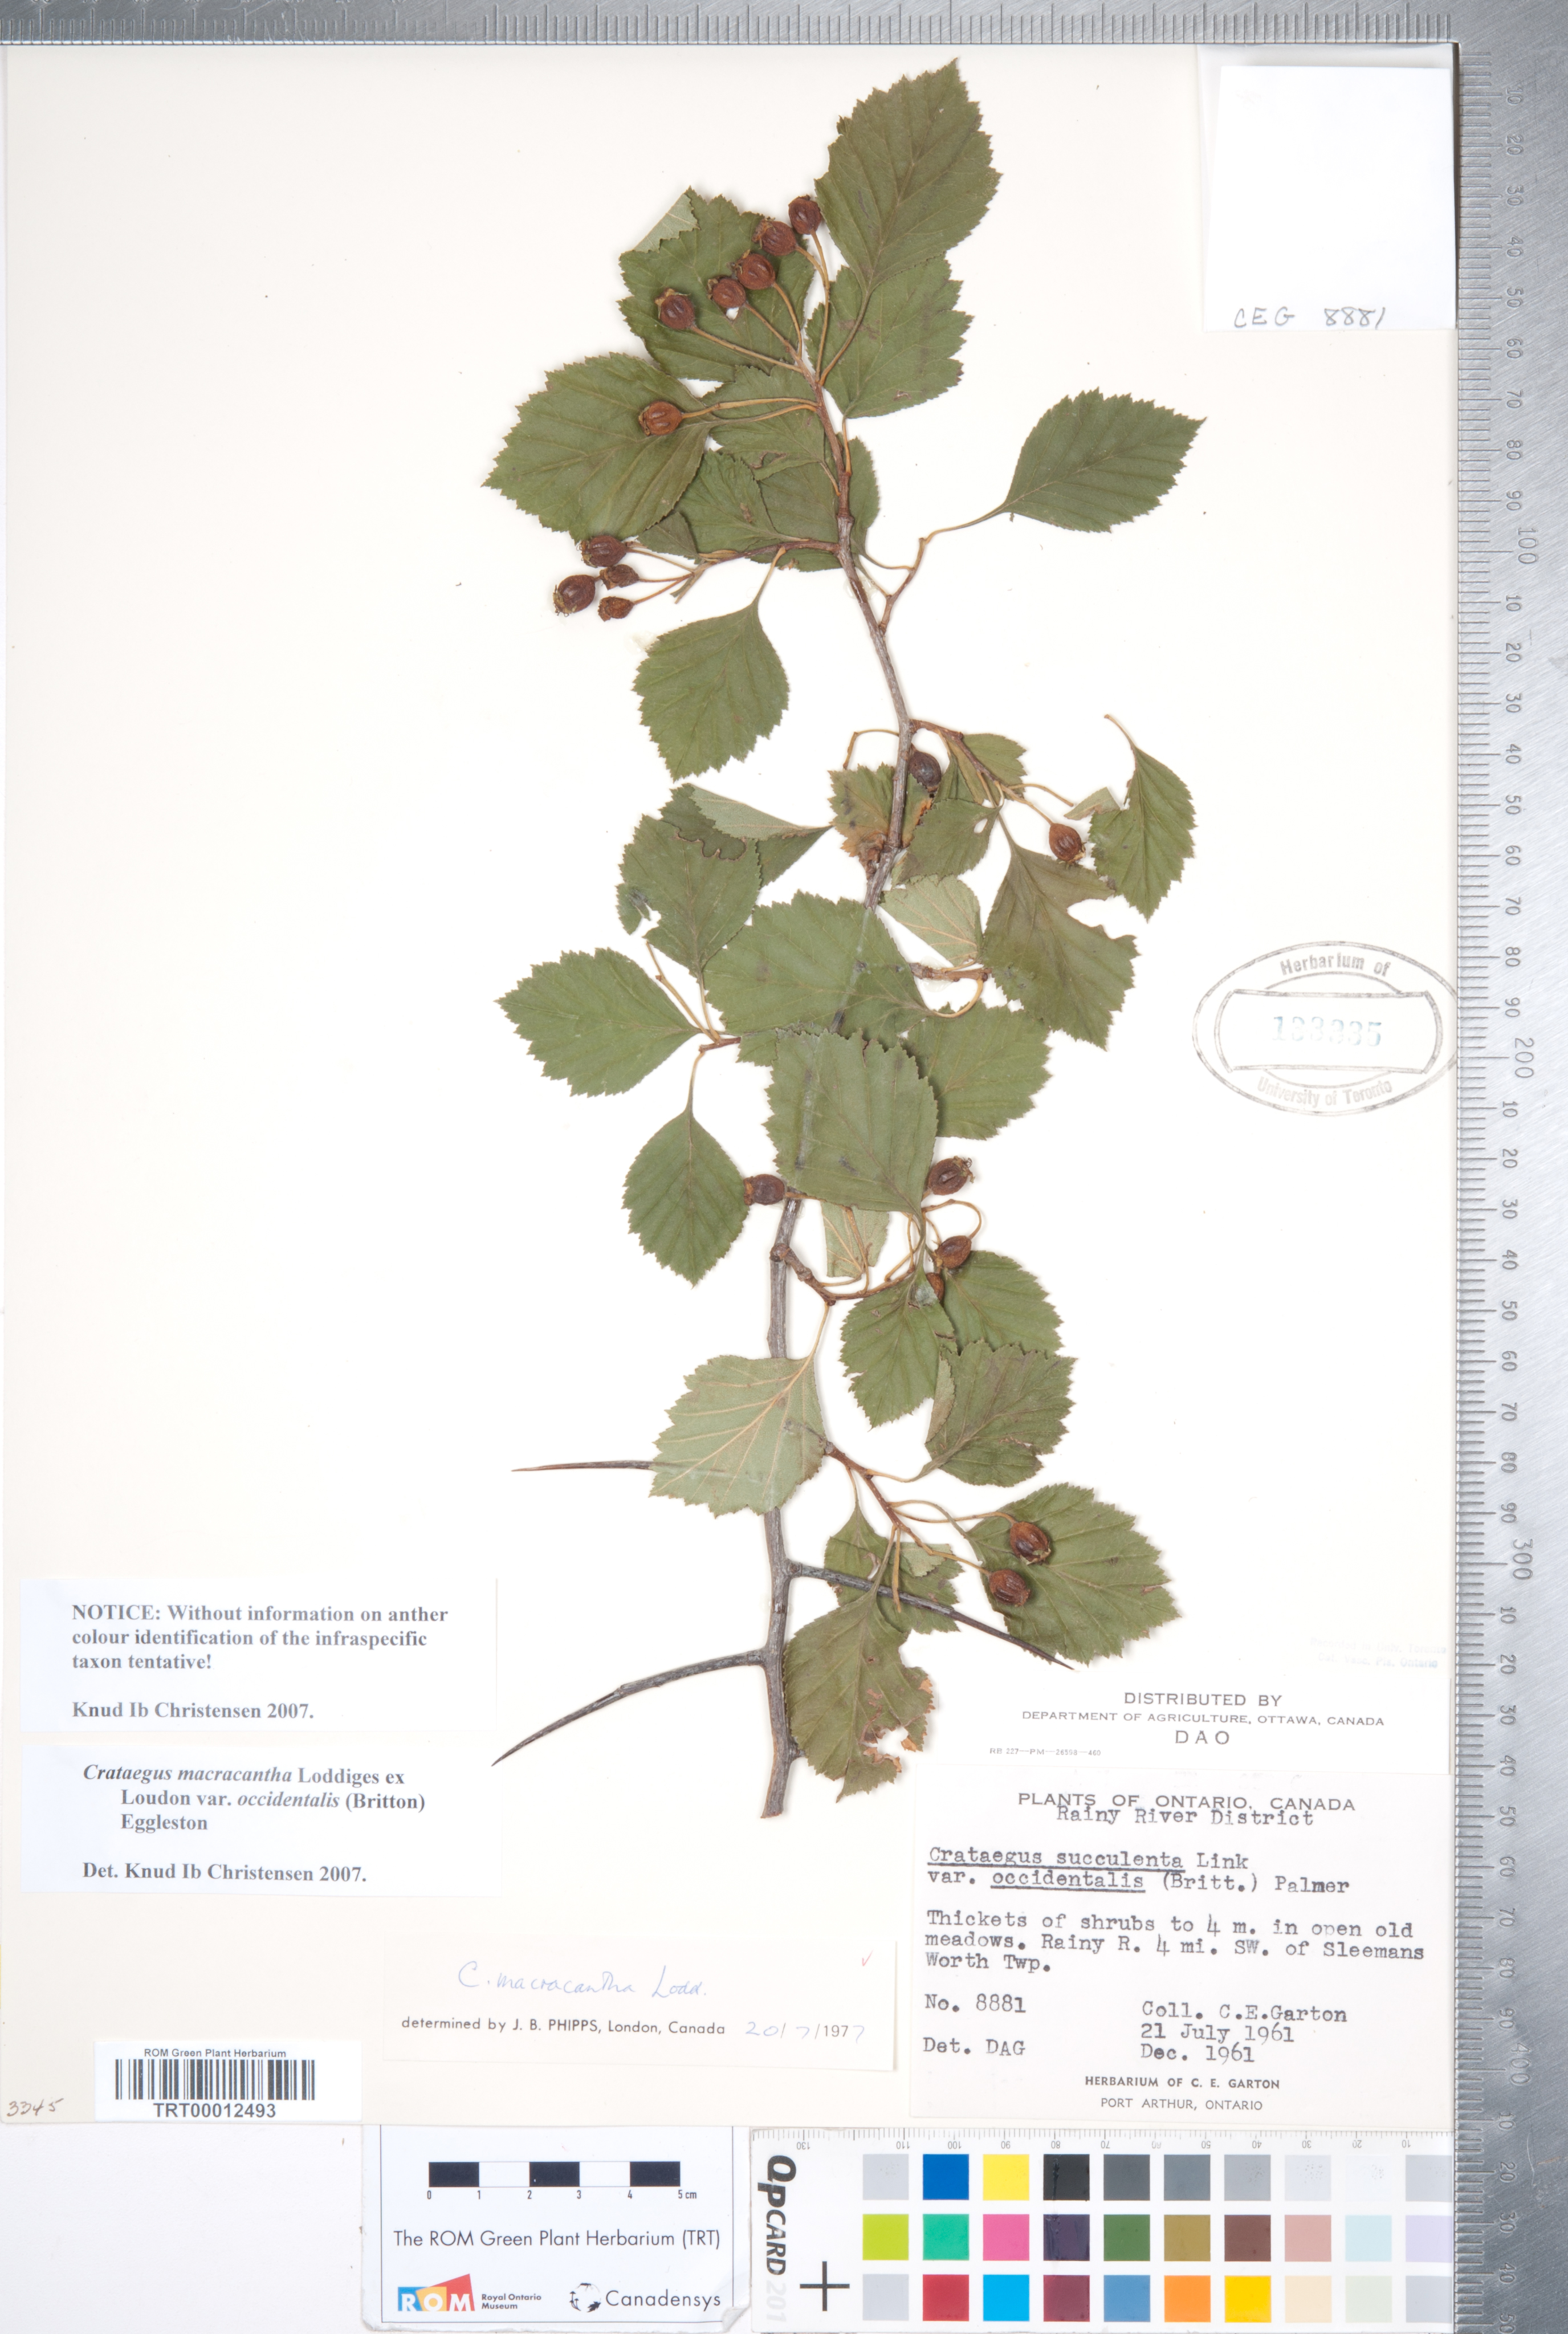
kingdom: Plantae
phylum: Tracheophyta
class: Magnoliopsida
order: Rosales
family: Rosaceae
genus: Crataegus
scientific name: Crataegus macracantha
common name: Large-thorn hawthorn
